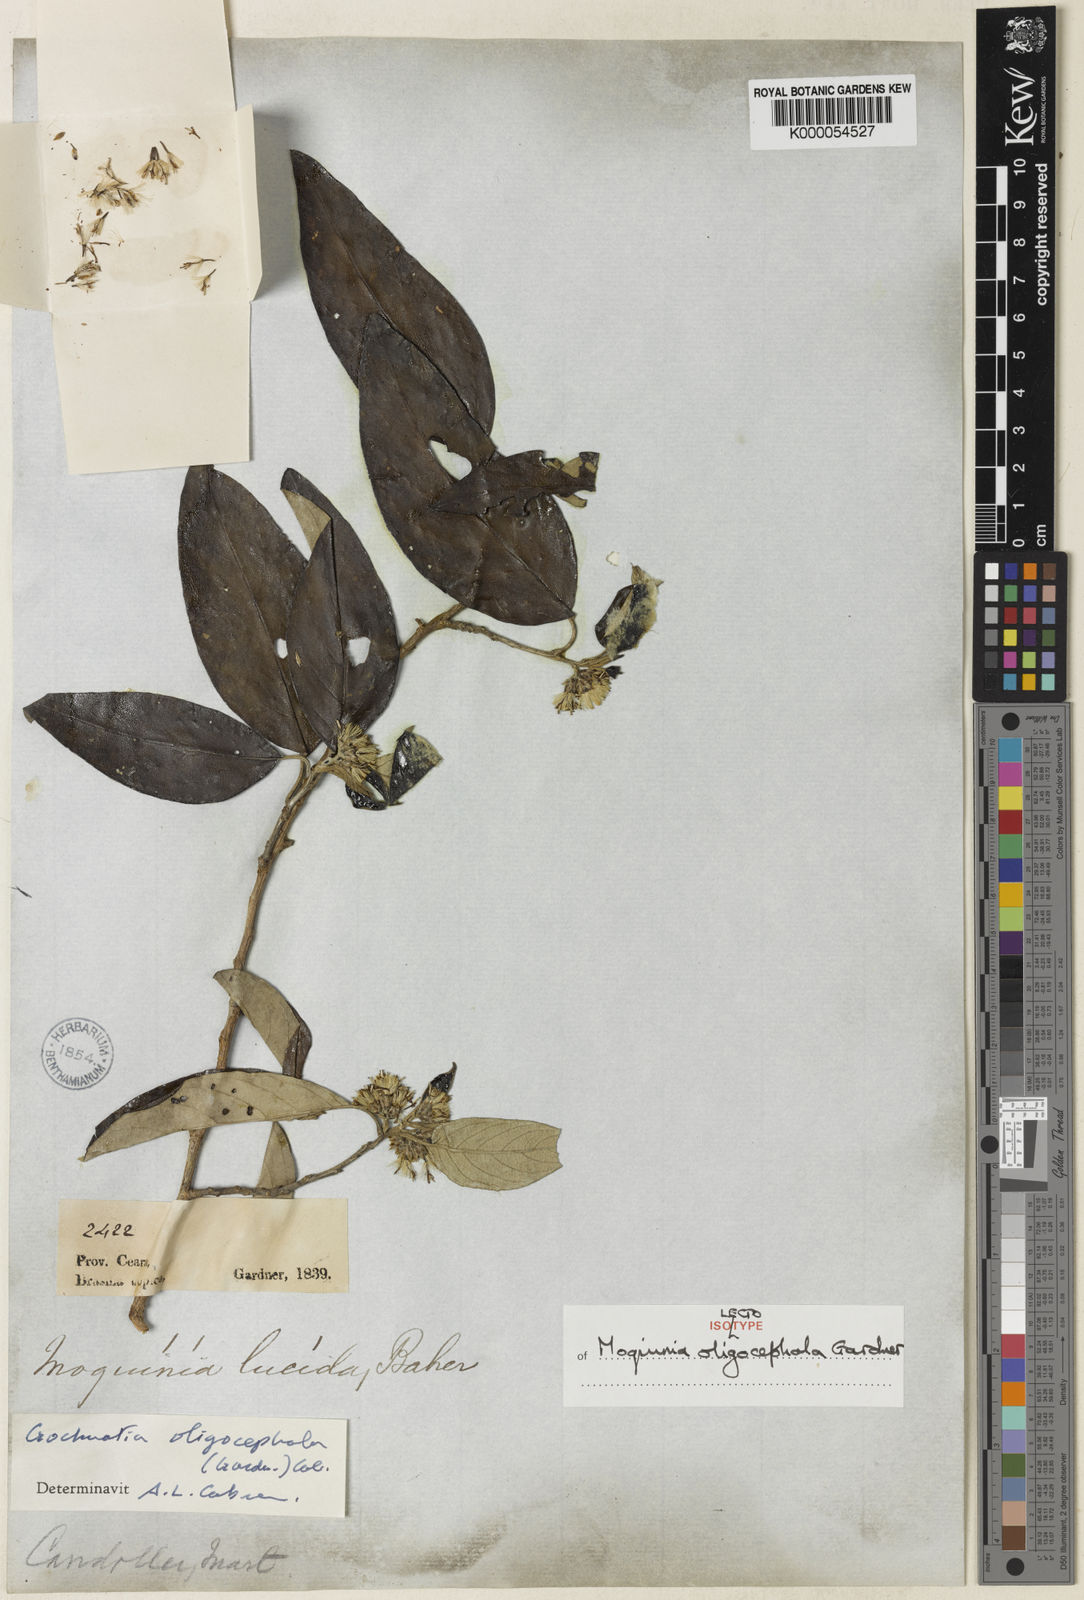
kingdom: Plantae
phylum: Tracheophyta
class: Magnoliopsida
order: Asterales
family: Asteraceae
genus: Moquiniastrum
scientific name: Moquiniastrum oligocephalum
